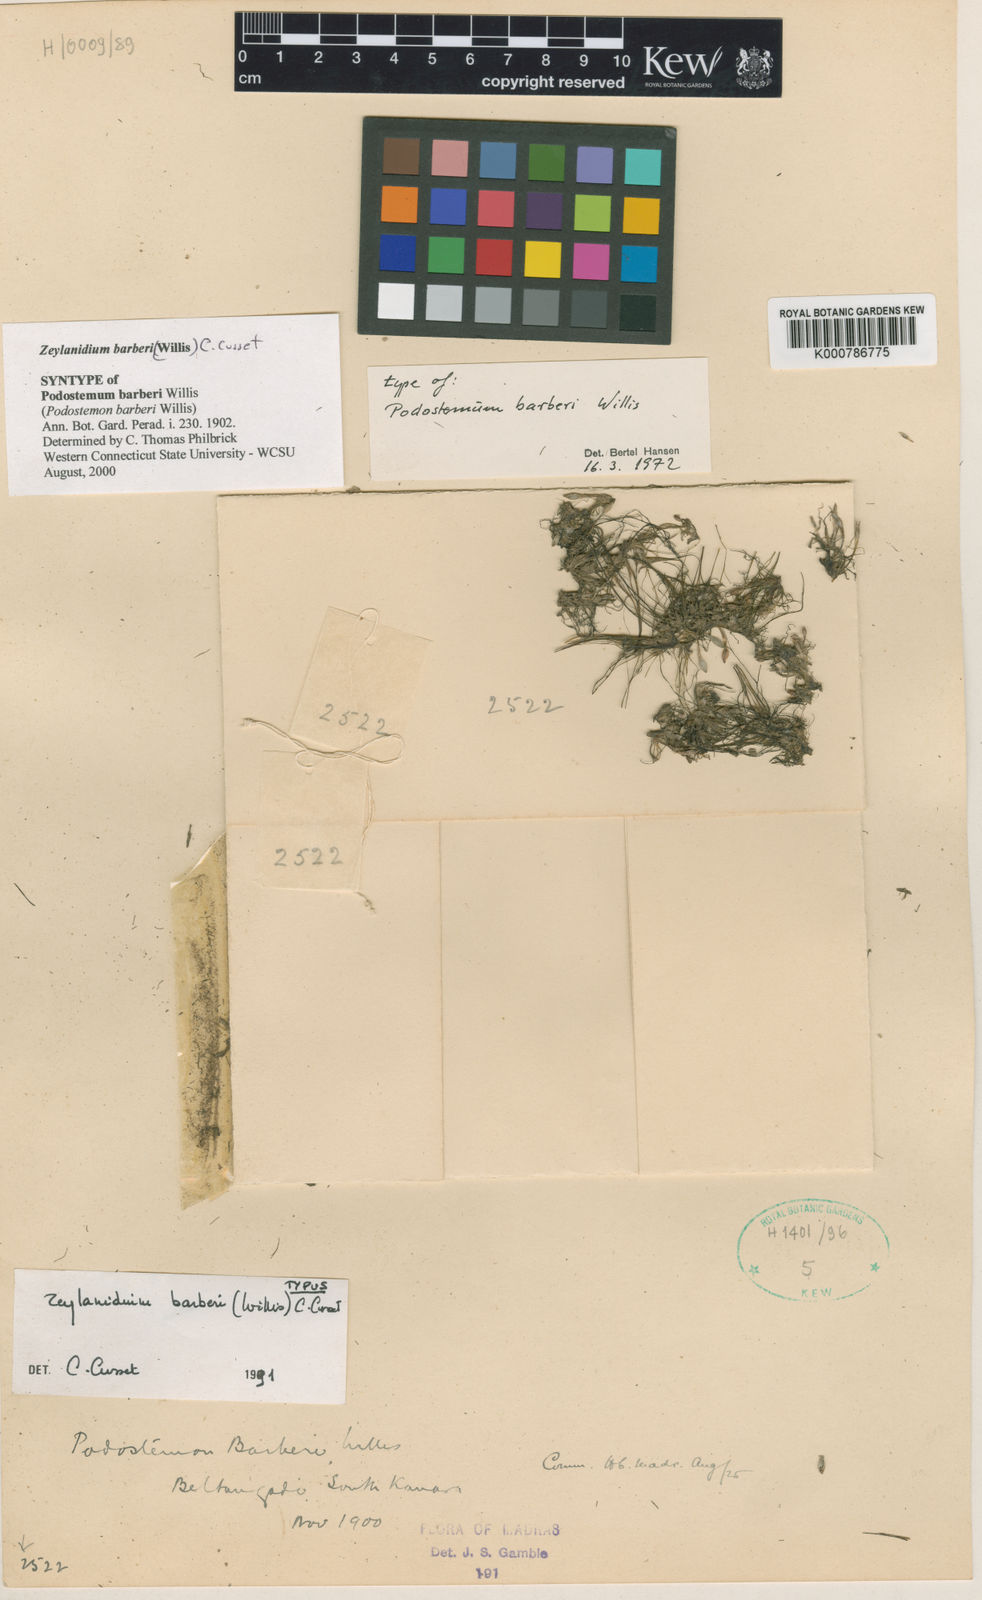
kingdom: Plantae
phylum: Tracheophyta
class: Magnoliopsida
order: Malpighiales
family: Podostemaceae
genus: Zeylanidium
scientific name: Zeylanidium barberi
